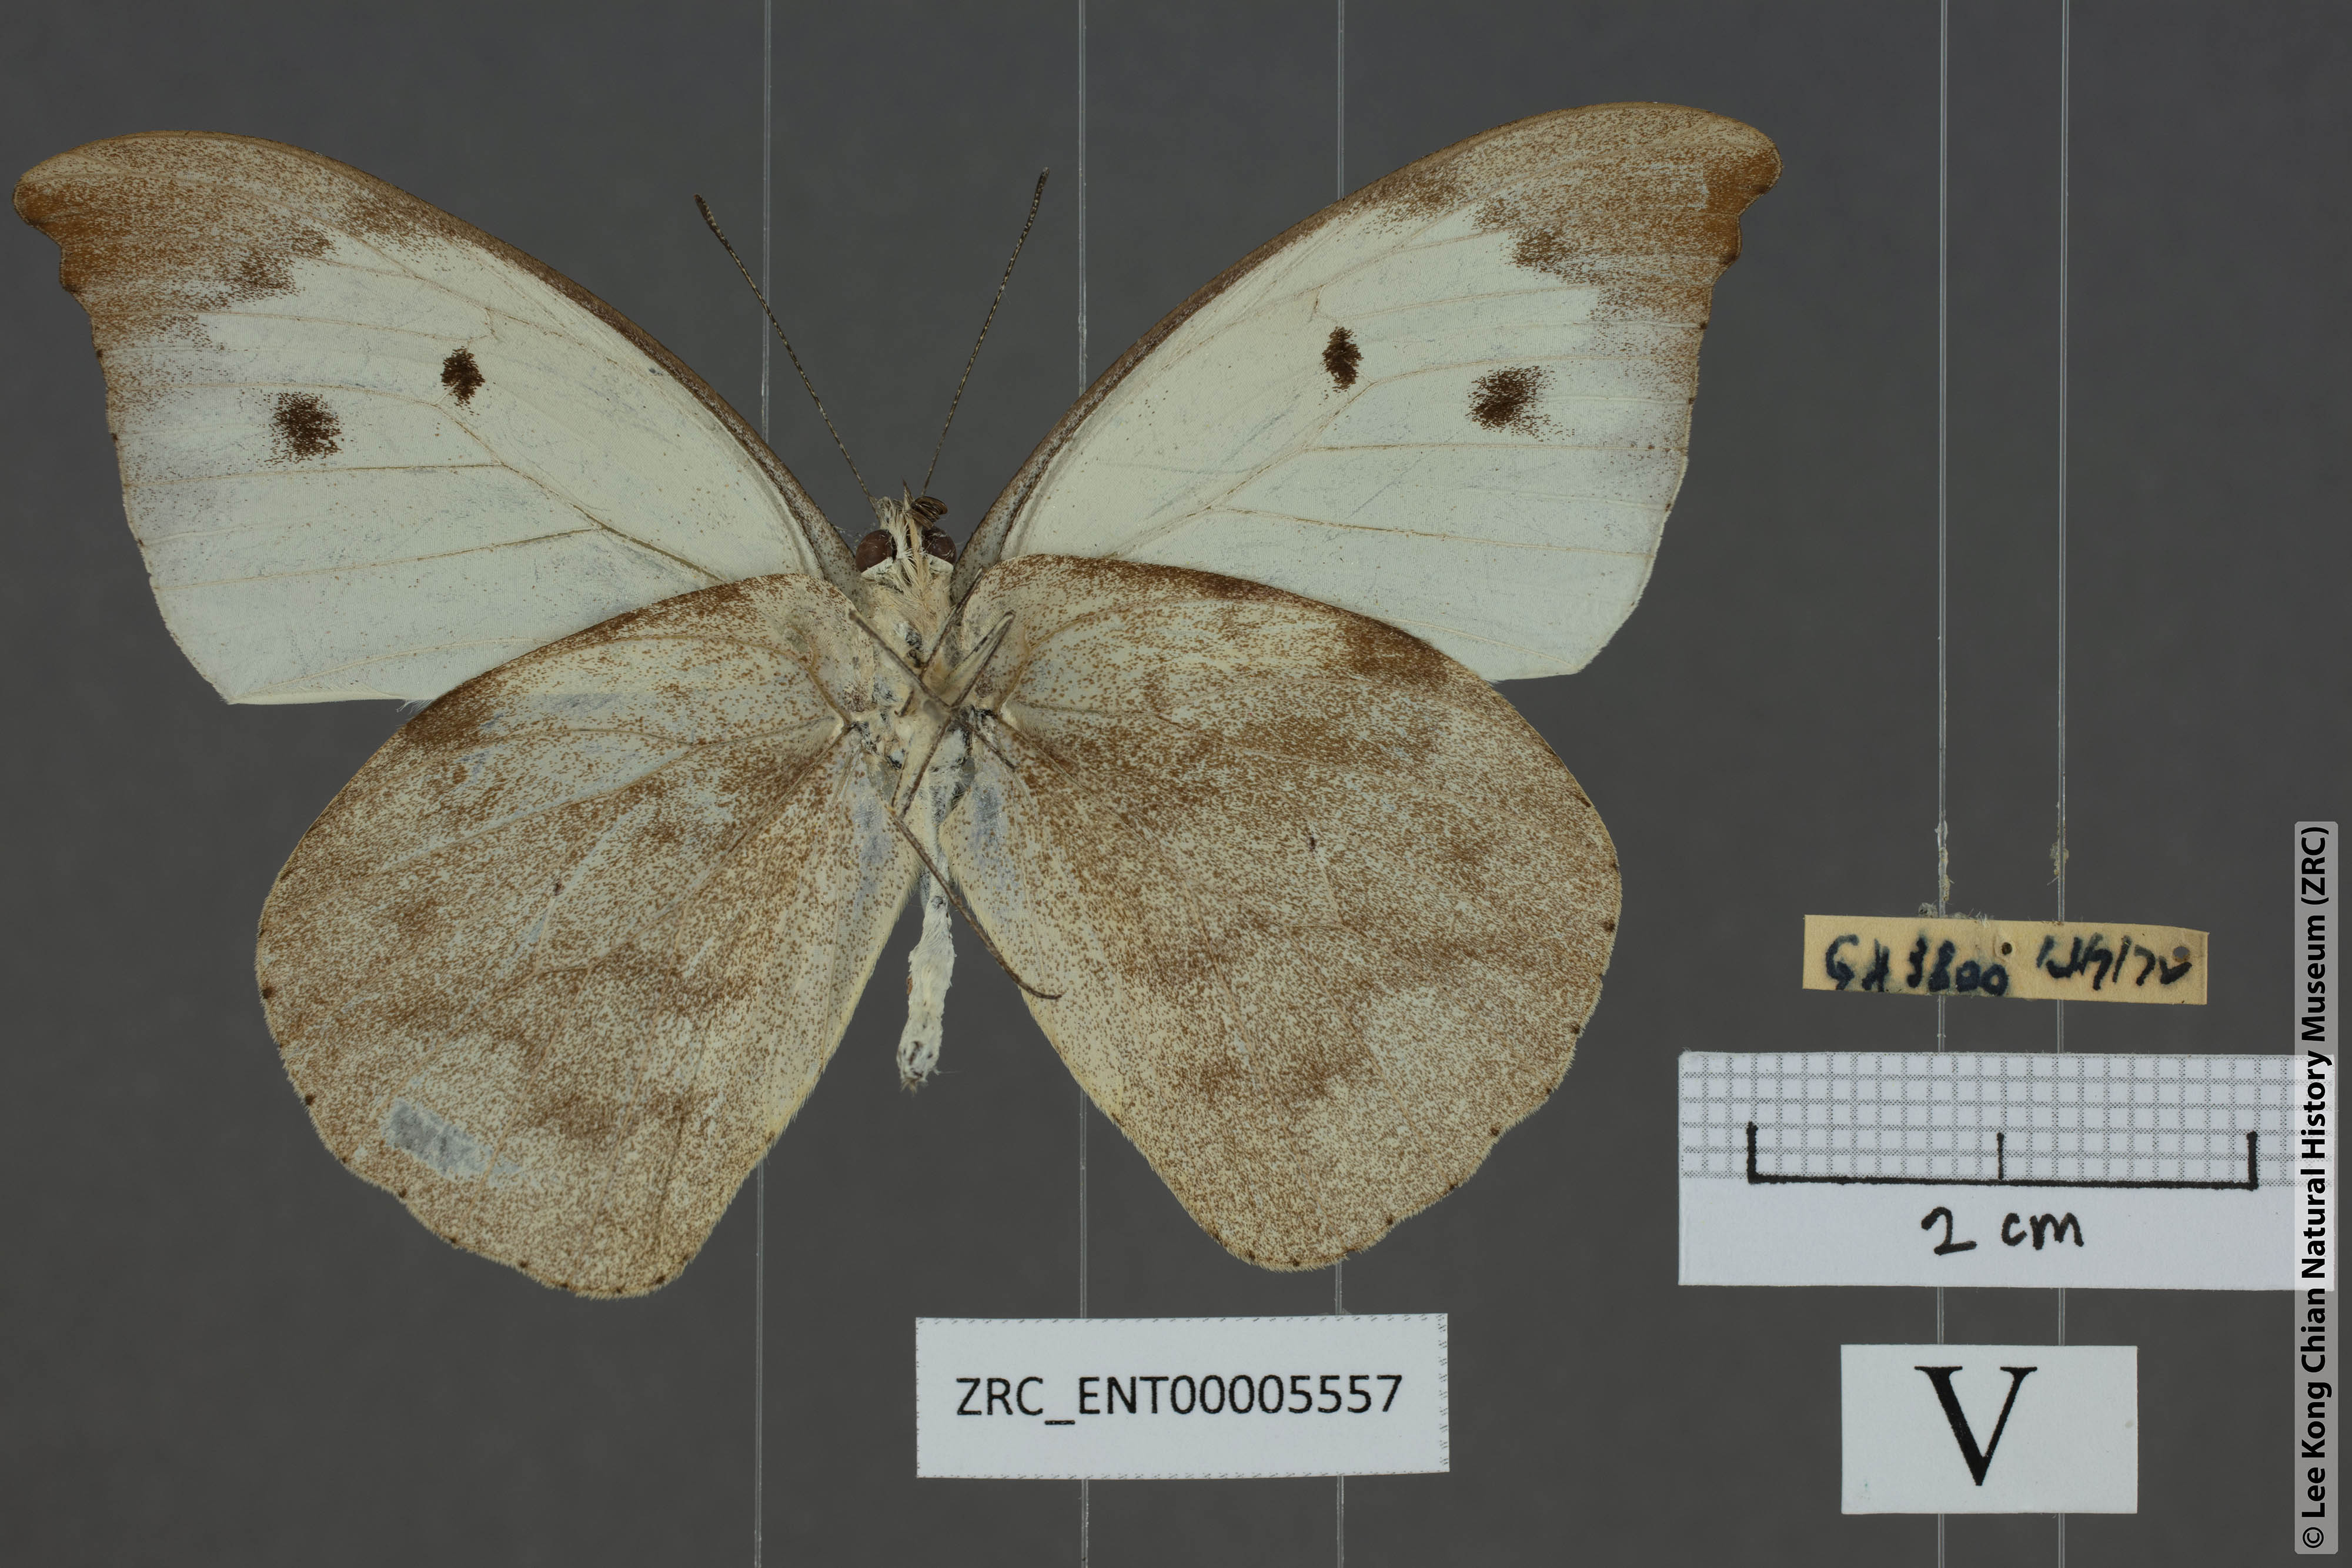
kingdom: Animalia
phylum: Arthropoda
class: Insecta
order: Lepidoptera
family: Pieridae
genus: Appias
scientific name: Appias lalassis
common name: Burmese puffin
